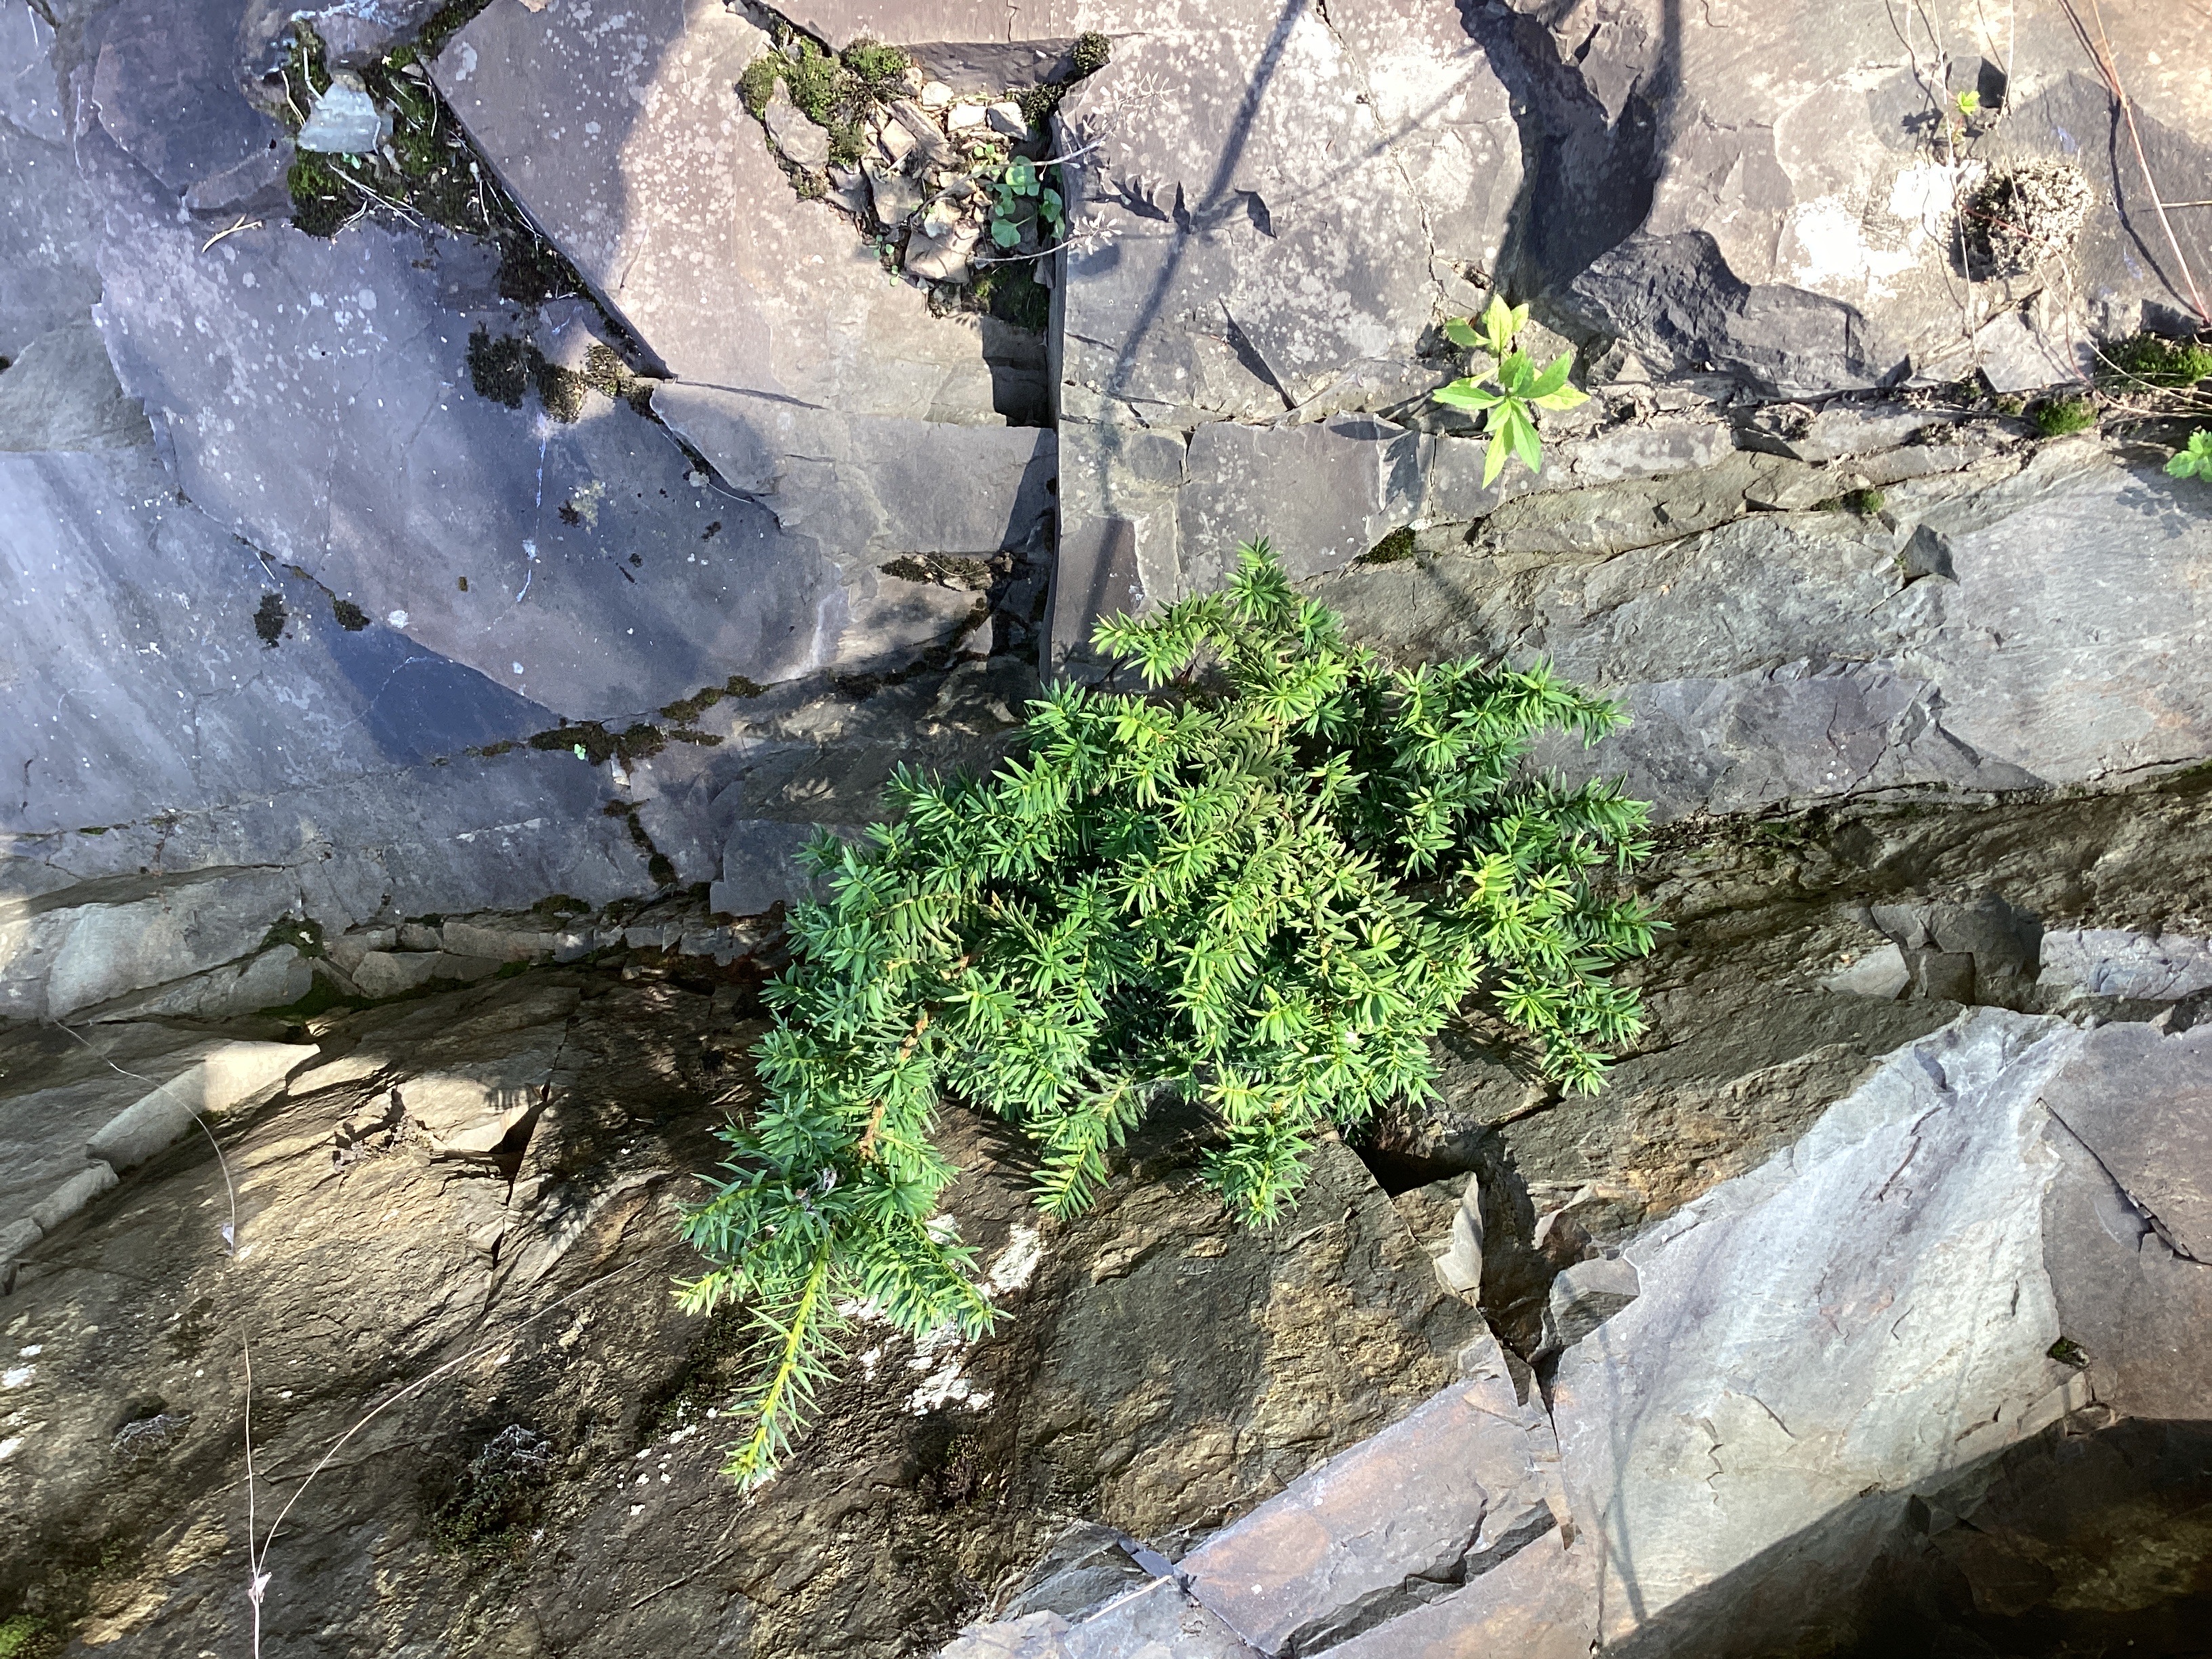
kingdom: Plantae
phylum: Tracheophyta
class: Pinopsida
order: Pinales
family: Taxaceae
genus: Taxus
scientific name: Taxus media
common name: hybridbarlind
